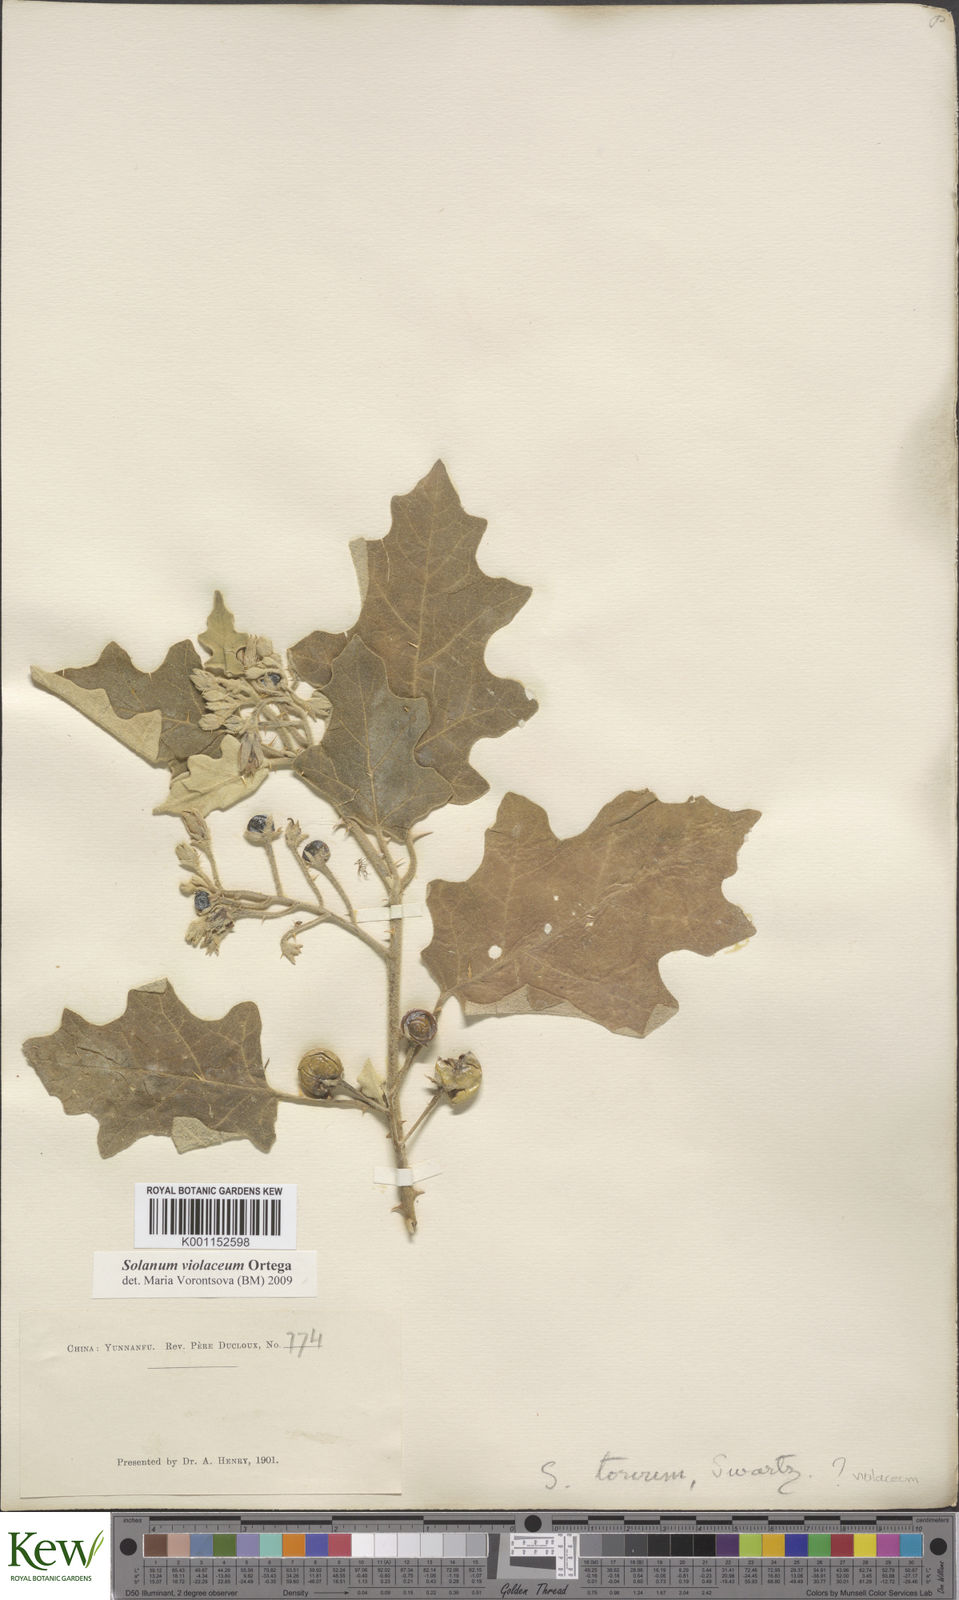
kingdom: Plantae
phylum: Tracheophyta
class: Magnoliopsida
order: Solanales
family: Solanaceae
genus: Solanum
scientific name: Solanum violaceum
